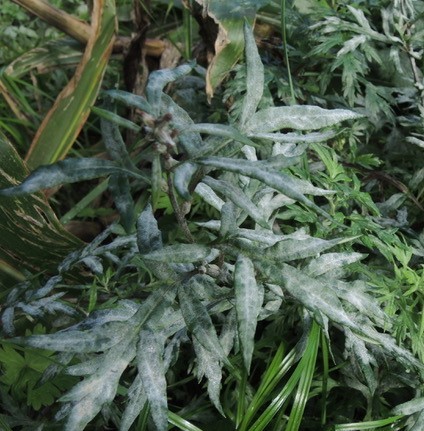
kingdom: Fungi
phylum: Ascomycota
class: Leotiomycetes
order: Helotiales
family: Erysiphaceae
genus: Golovinomyces
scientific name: Golovinomyces artemisiae
